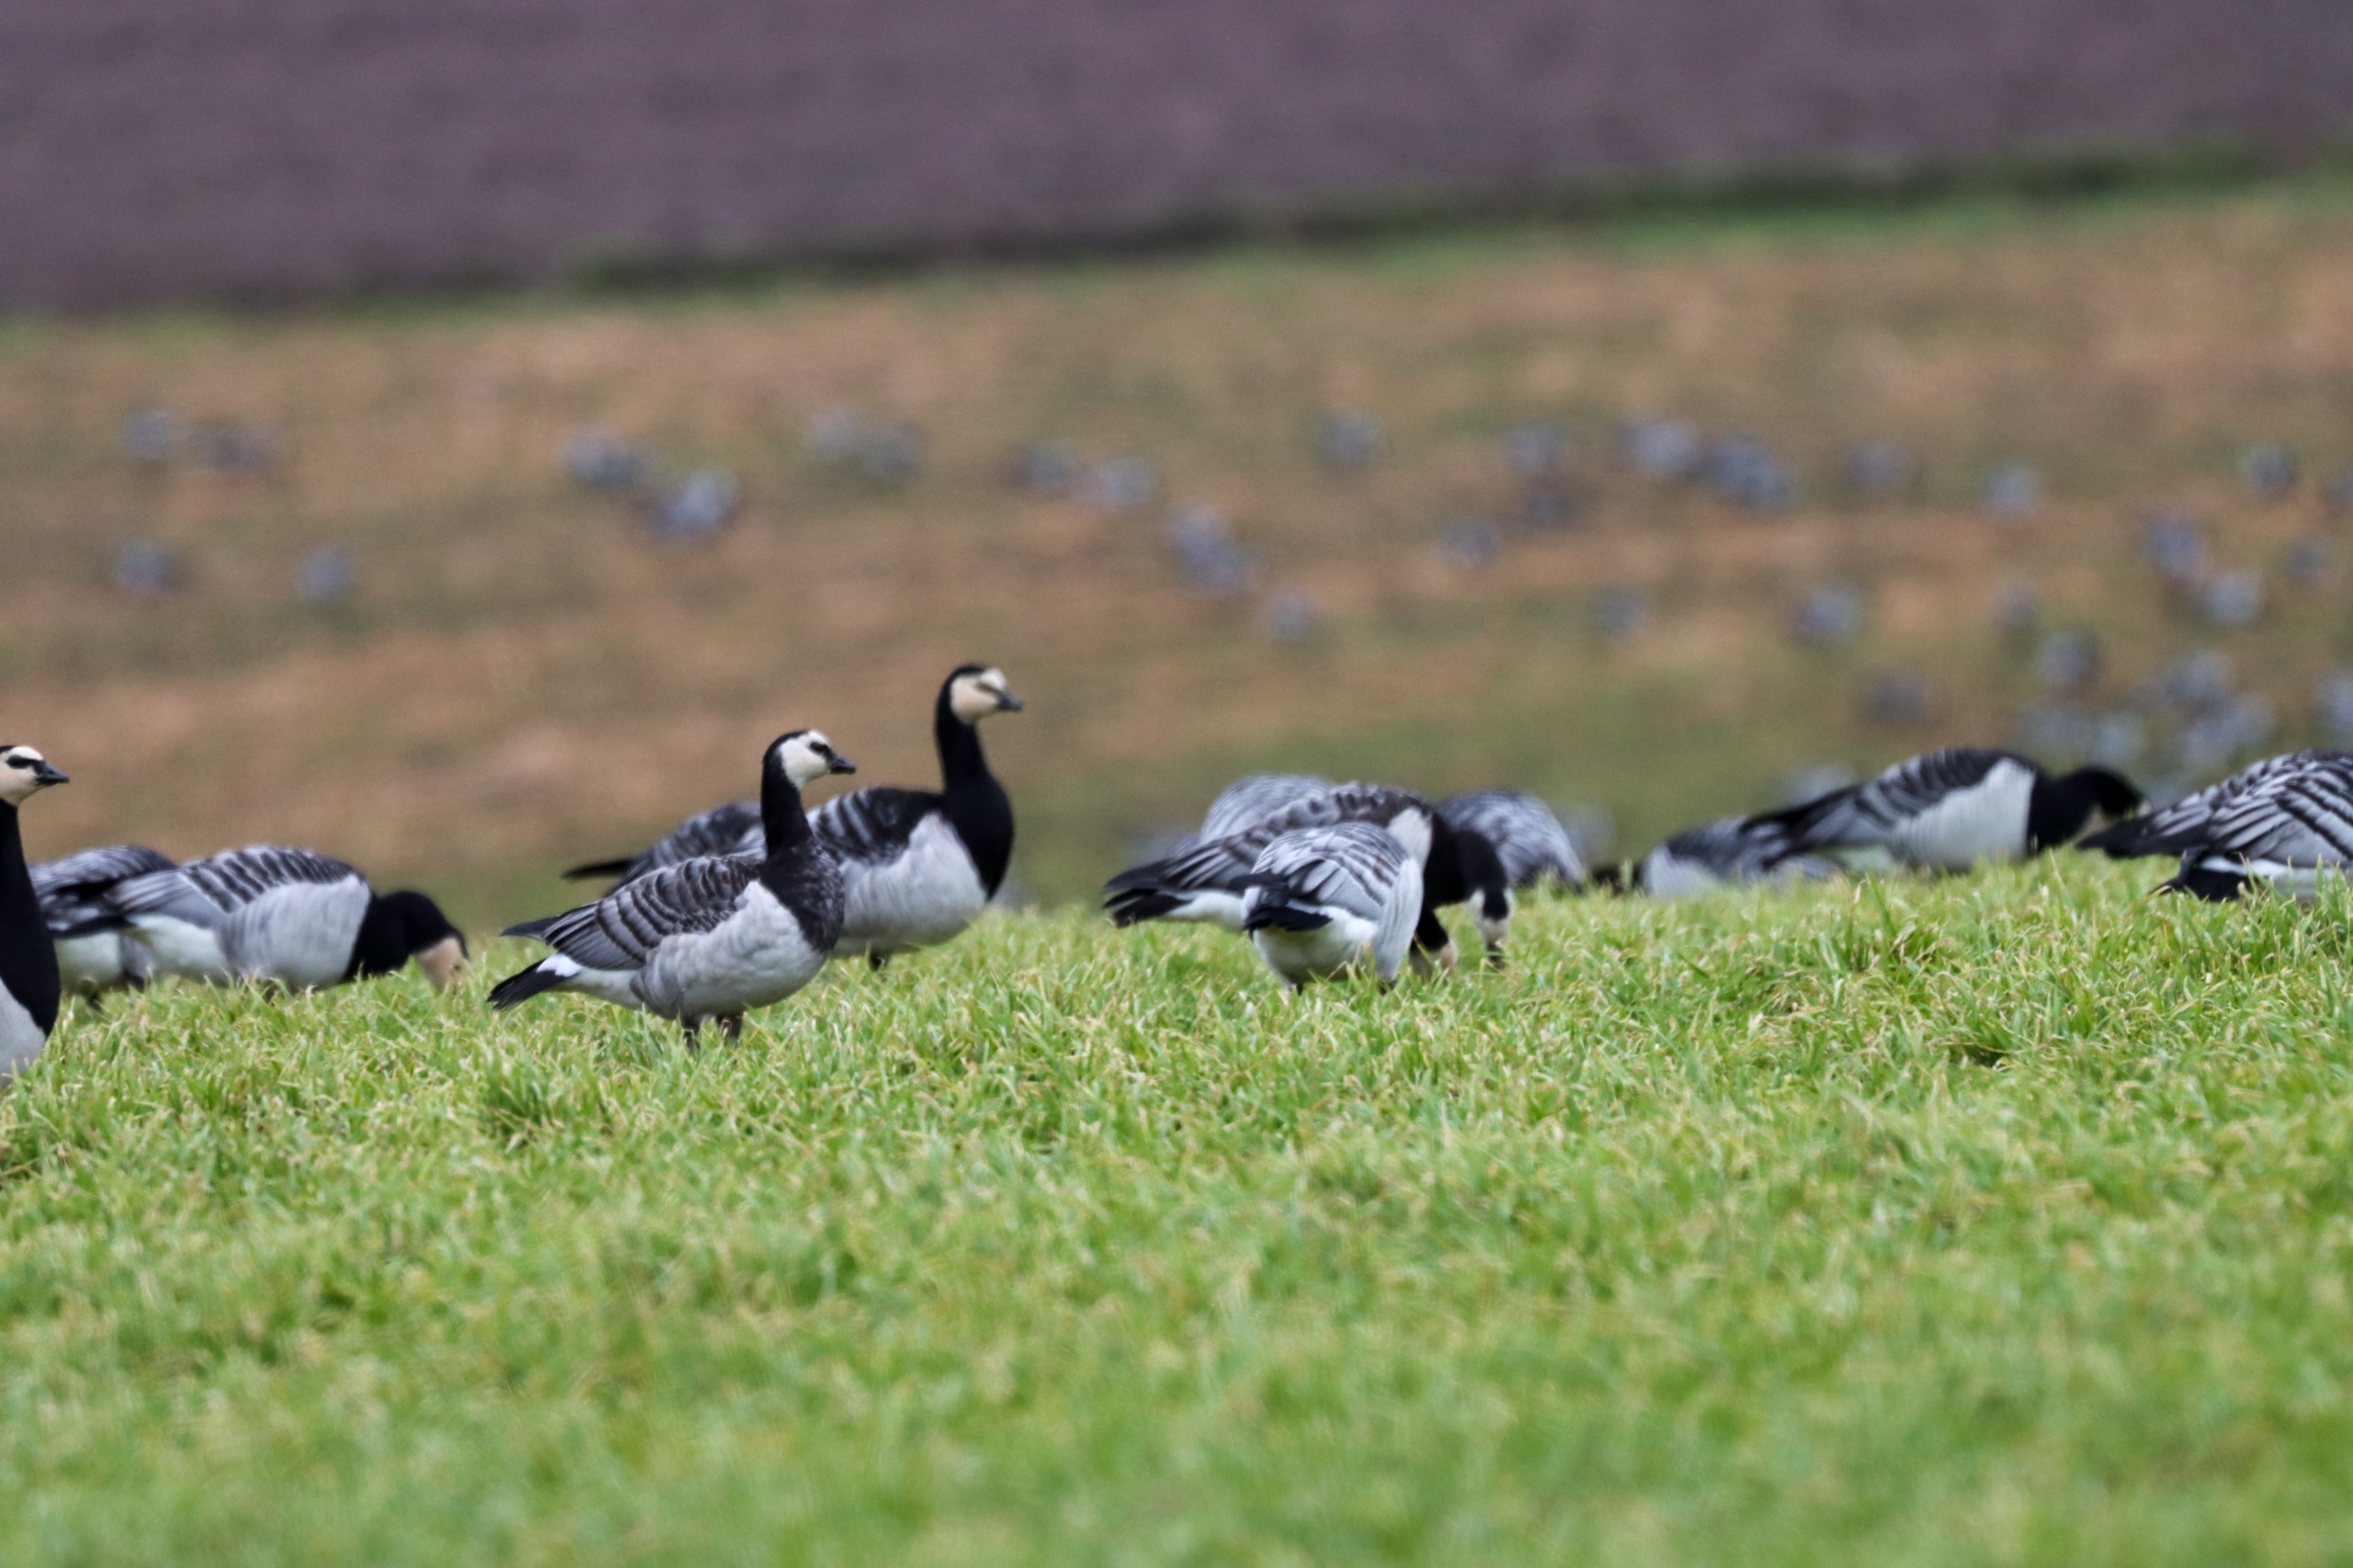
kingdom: Animalia
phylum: Chordata
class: Aves
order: Anseriformes
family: Anatidae
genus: Branta
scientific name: Branta leucopsis
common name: Bramgås
